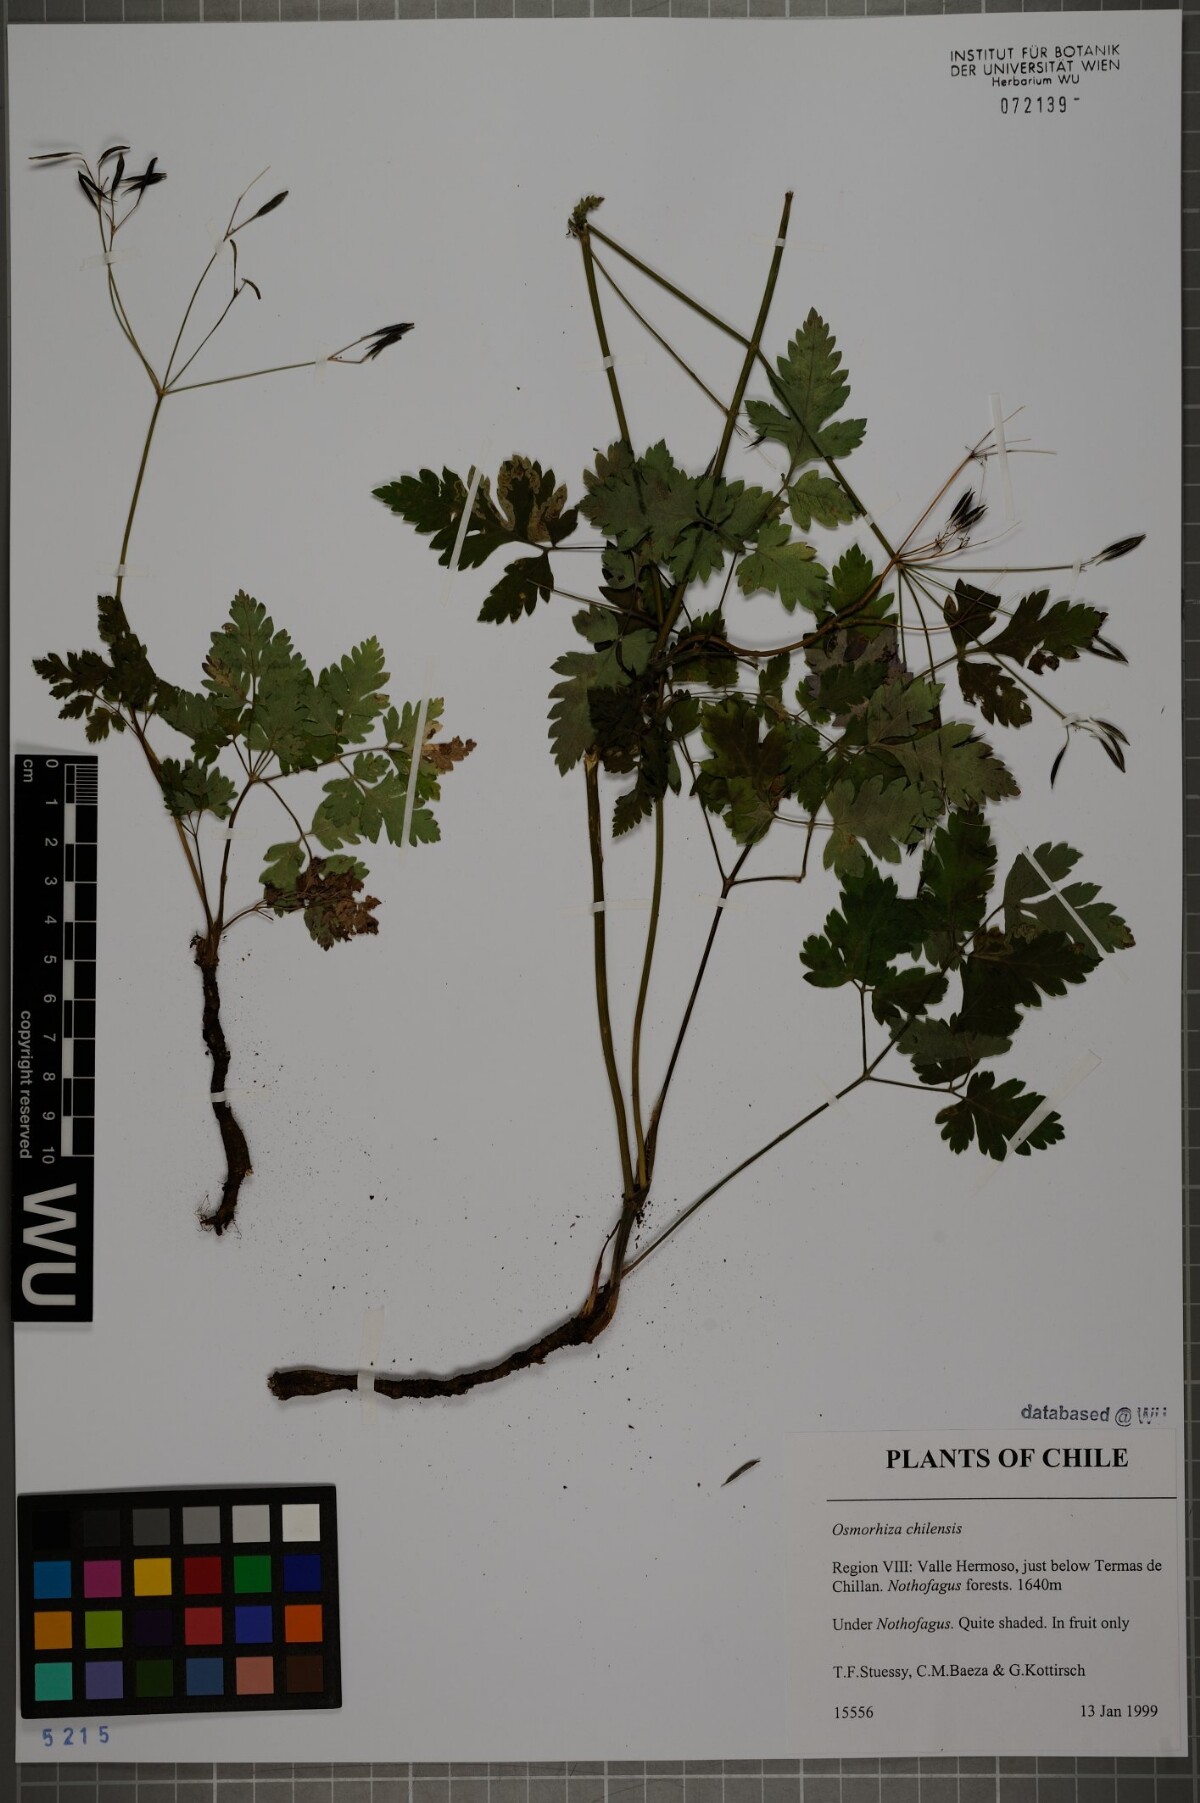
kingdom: Plantae
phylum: Tracheophyta
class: Magnoliopsida
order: Apiales
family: Apiaceae
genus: Osmorhiza
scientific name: Osmorhiza berteroi
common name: Mountain sweet cicely
